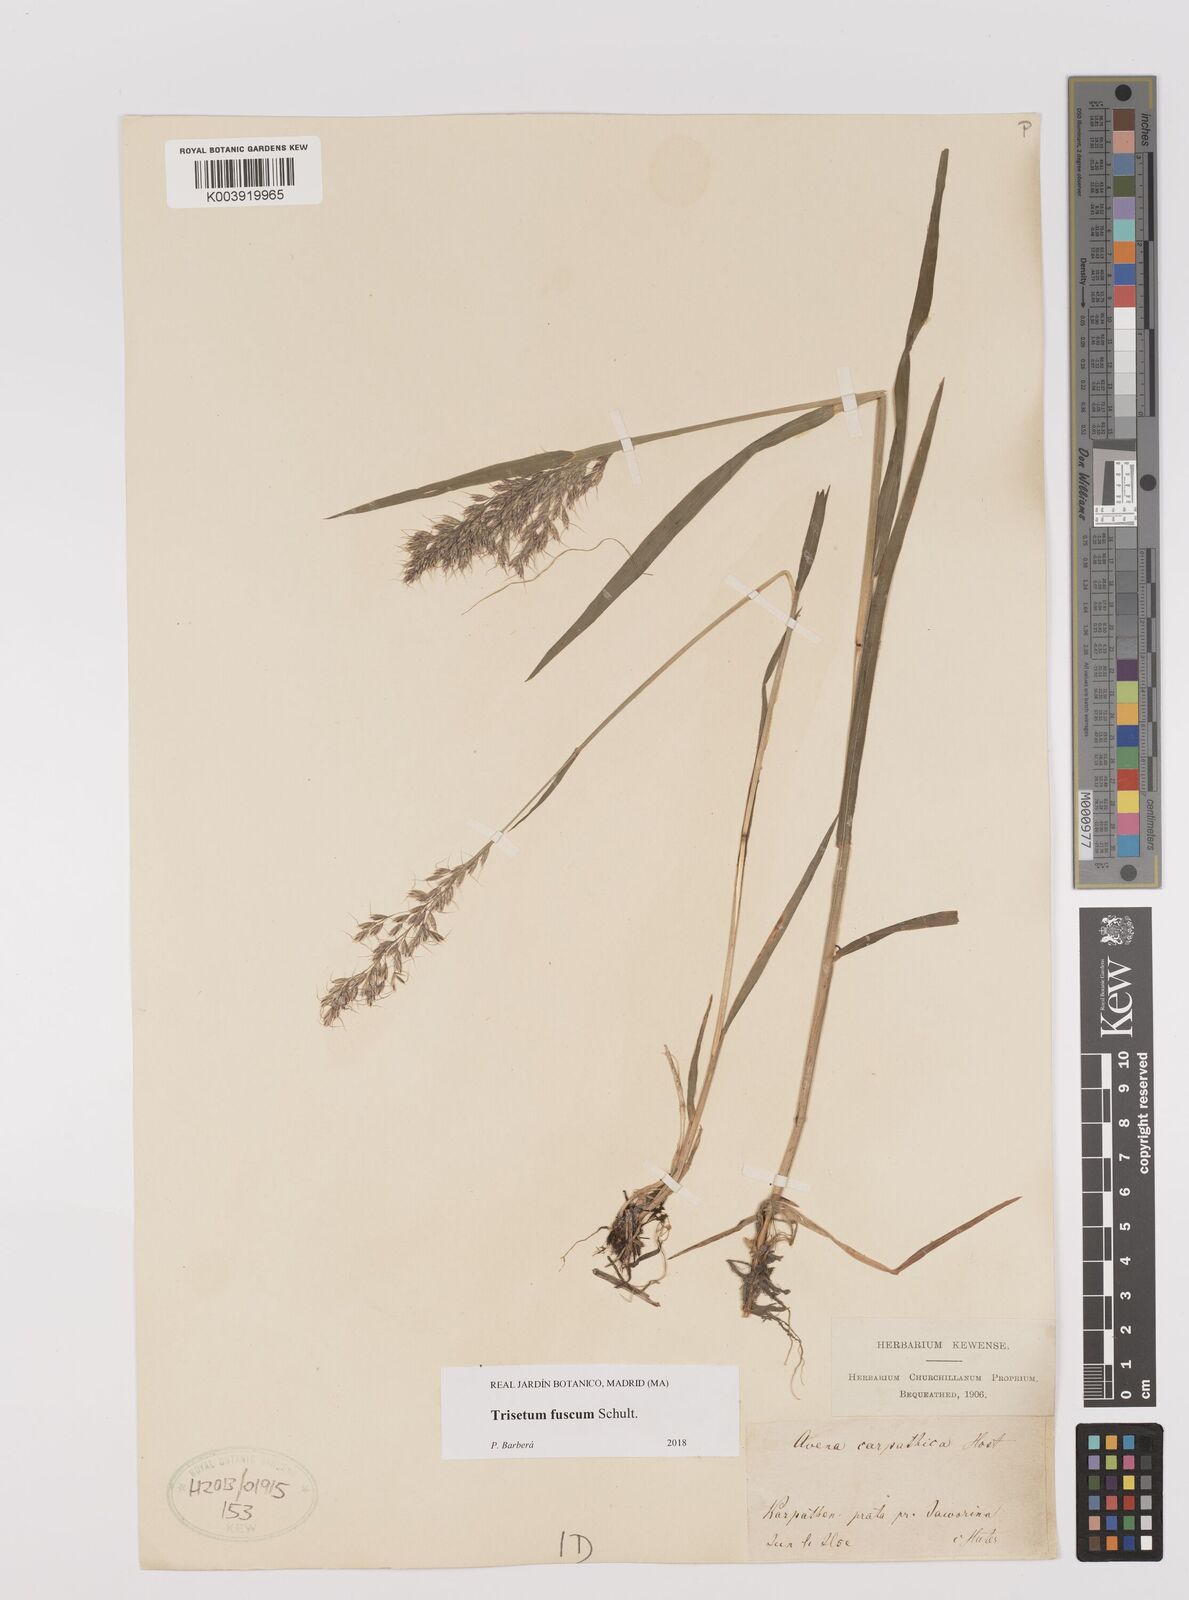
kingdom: Plantae
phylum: Tracheophyta
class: Liliopsida
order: Poales
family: Poaceae
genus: Trisetum
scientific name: Trisetum fuscum
